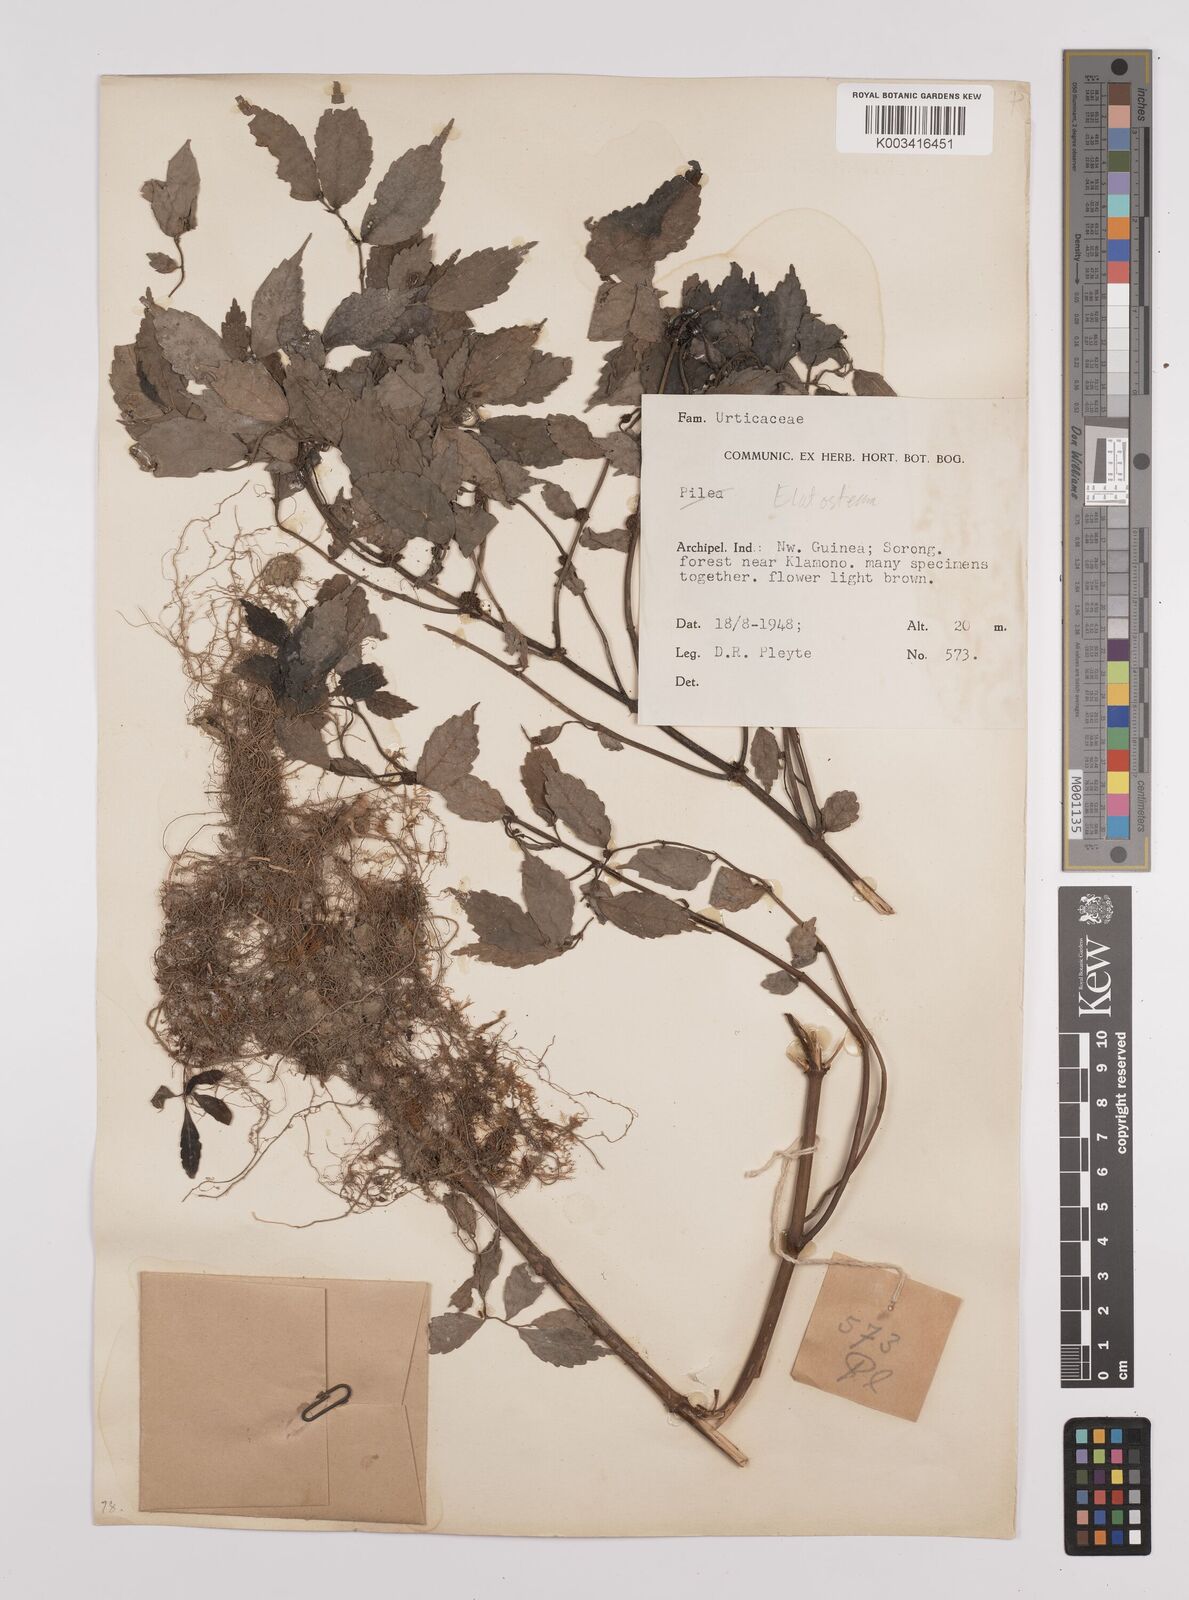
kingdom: Plantae
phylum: Tracheophyta
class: Magnoliopsida
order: Rosales
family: Urticaceae
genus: Elatostema
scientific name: Elatostema
